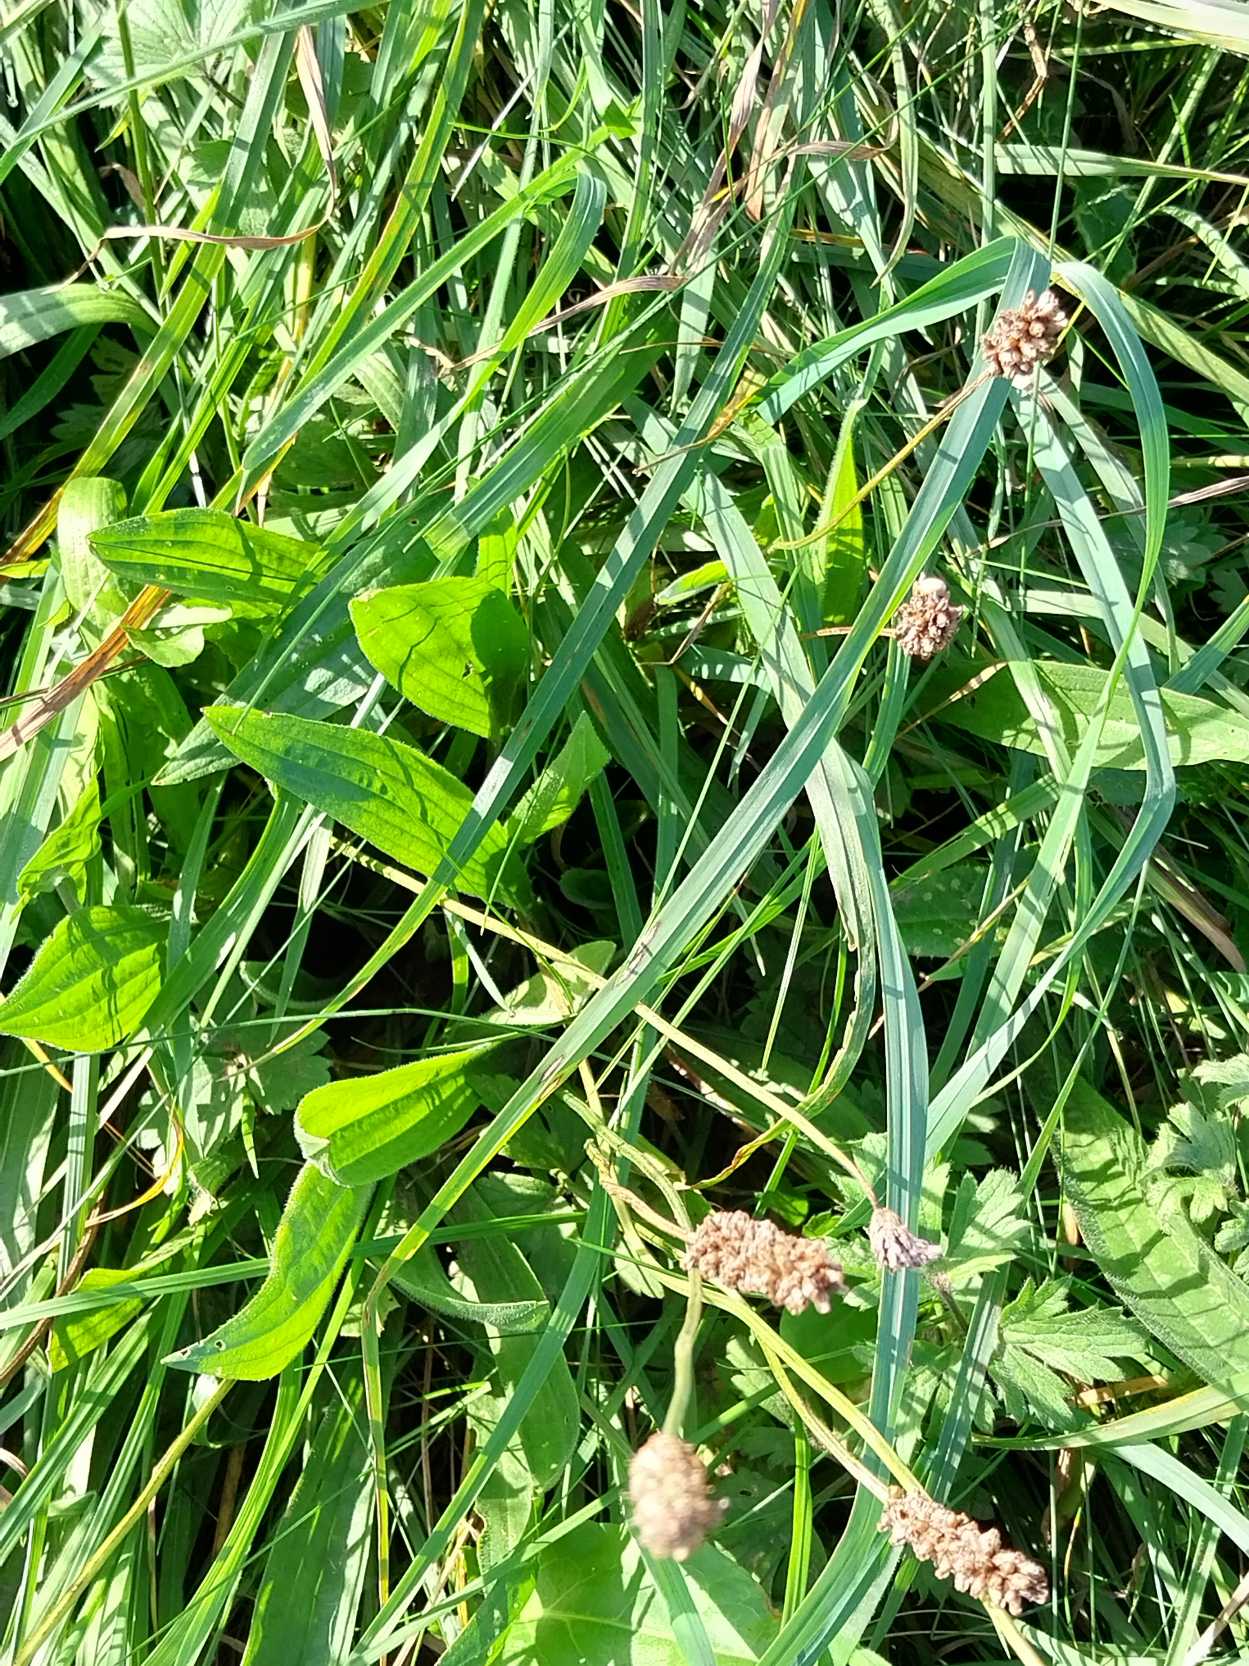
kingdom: Plantae
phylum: Tracheophyta
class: Magnoliopsida
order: Lamiales
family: Plantaginaceae
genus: Plantago
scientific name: Plantago lanceolata
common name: Lancet-vejbred
